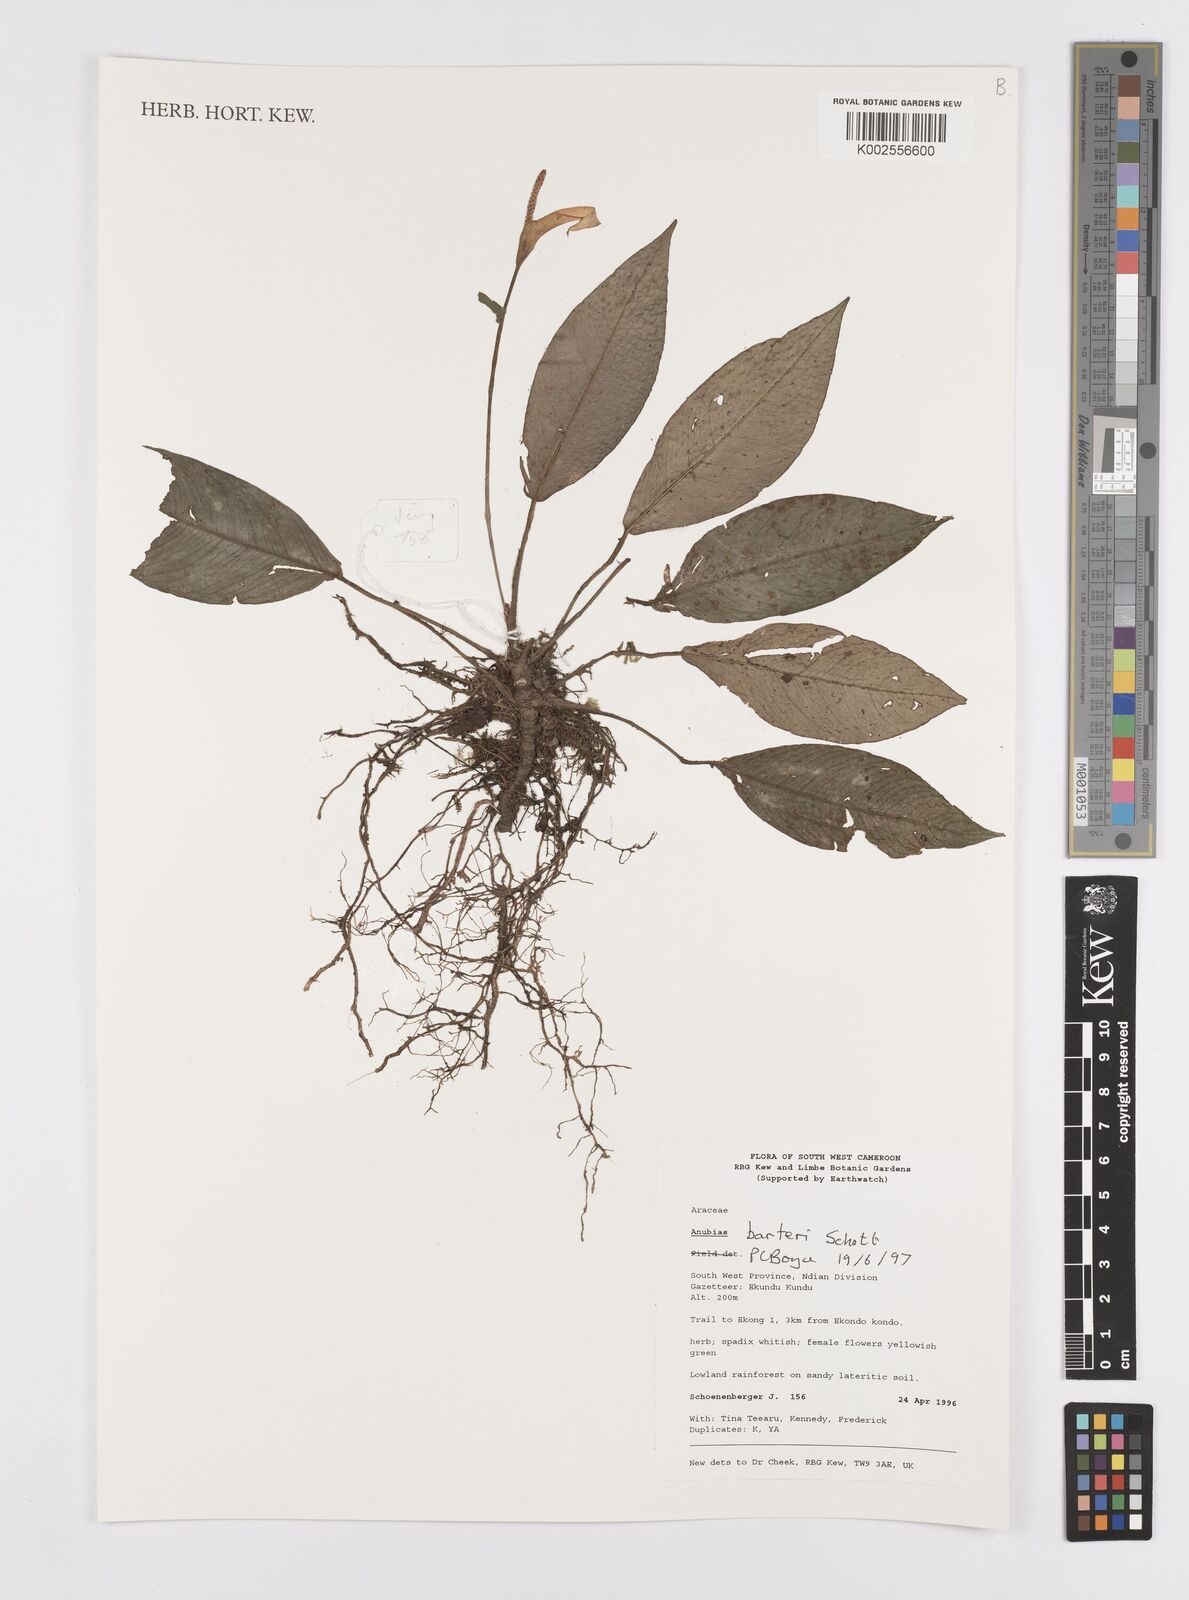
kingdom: Plantae
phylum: Tracheophyta
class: Liliopsida
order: Alismatales
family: Araceae
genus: Anubias
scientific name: Anubias barteri
